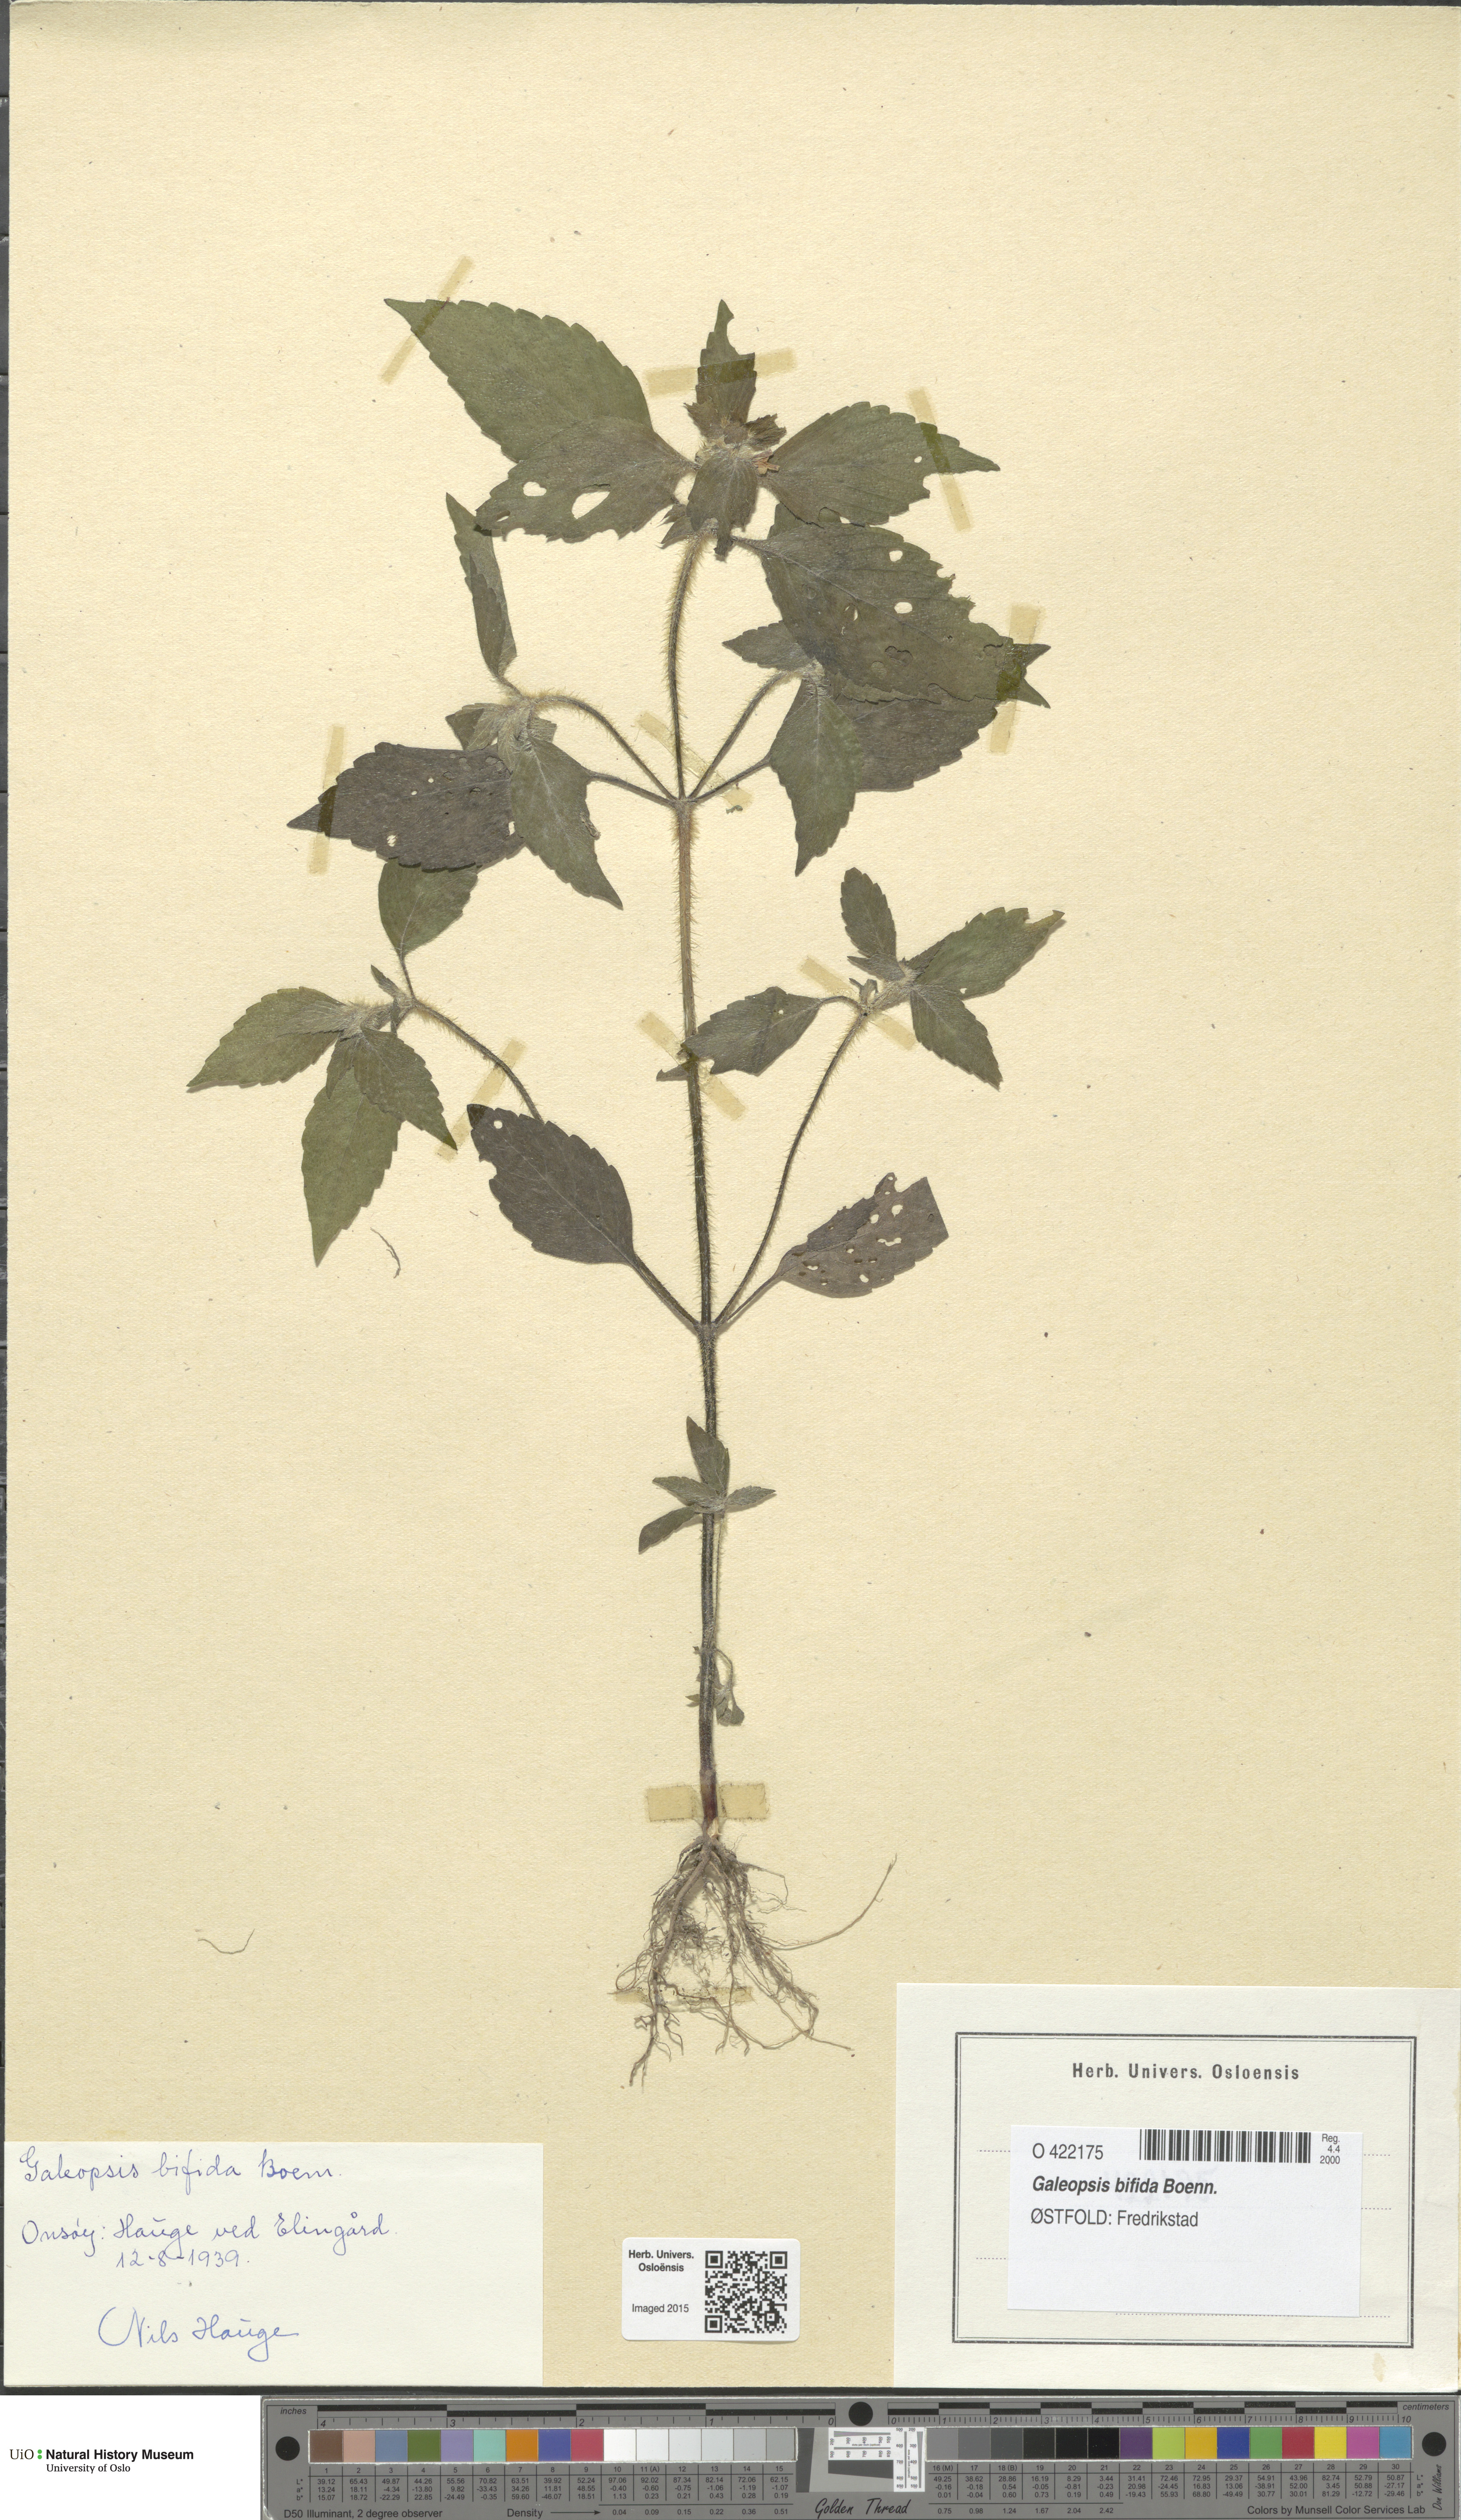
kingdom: Plantae
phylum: Tracheophyta
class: Magnoliopsida
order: Lamiales
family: Lamiaceae
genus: Galeopsis
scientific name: Galeopsis bifida
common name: Bifid hemp-nettle
